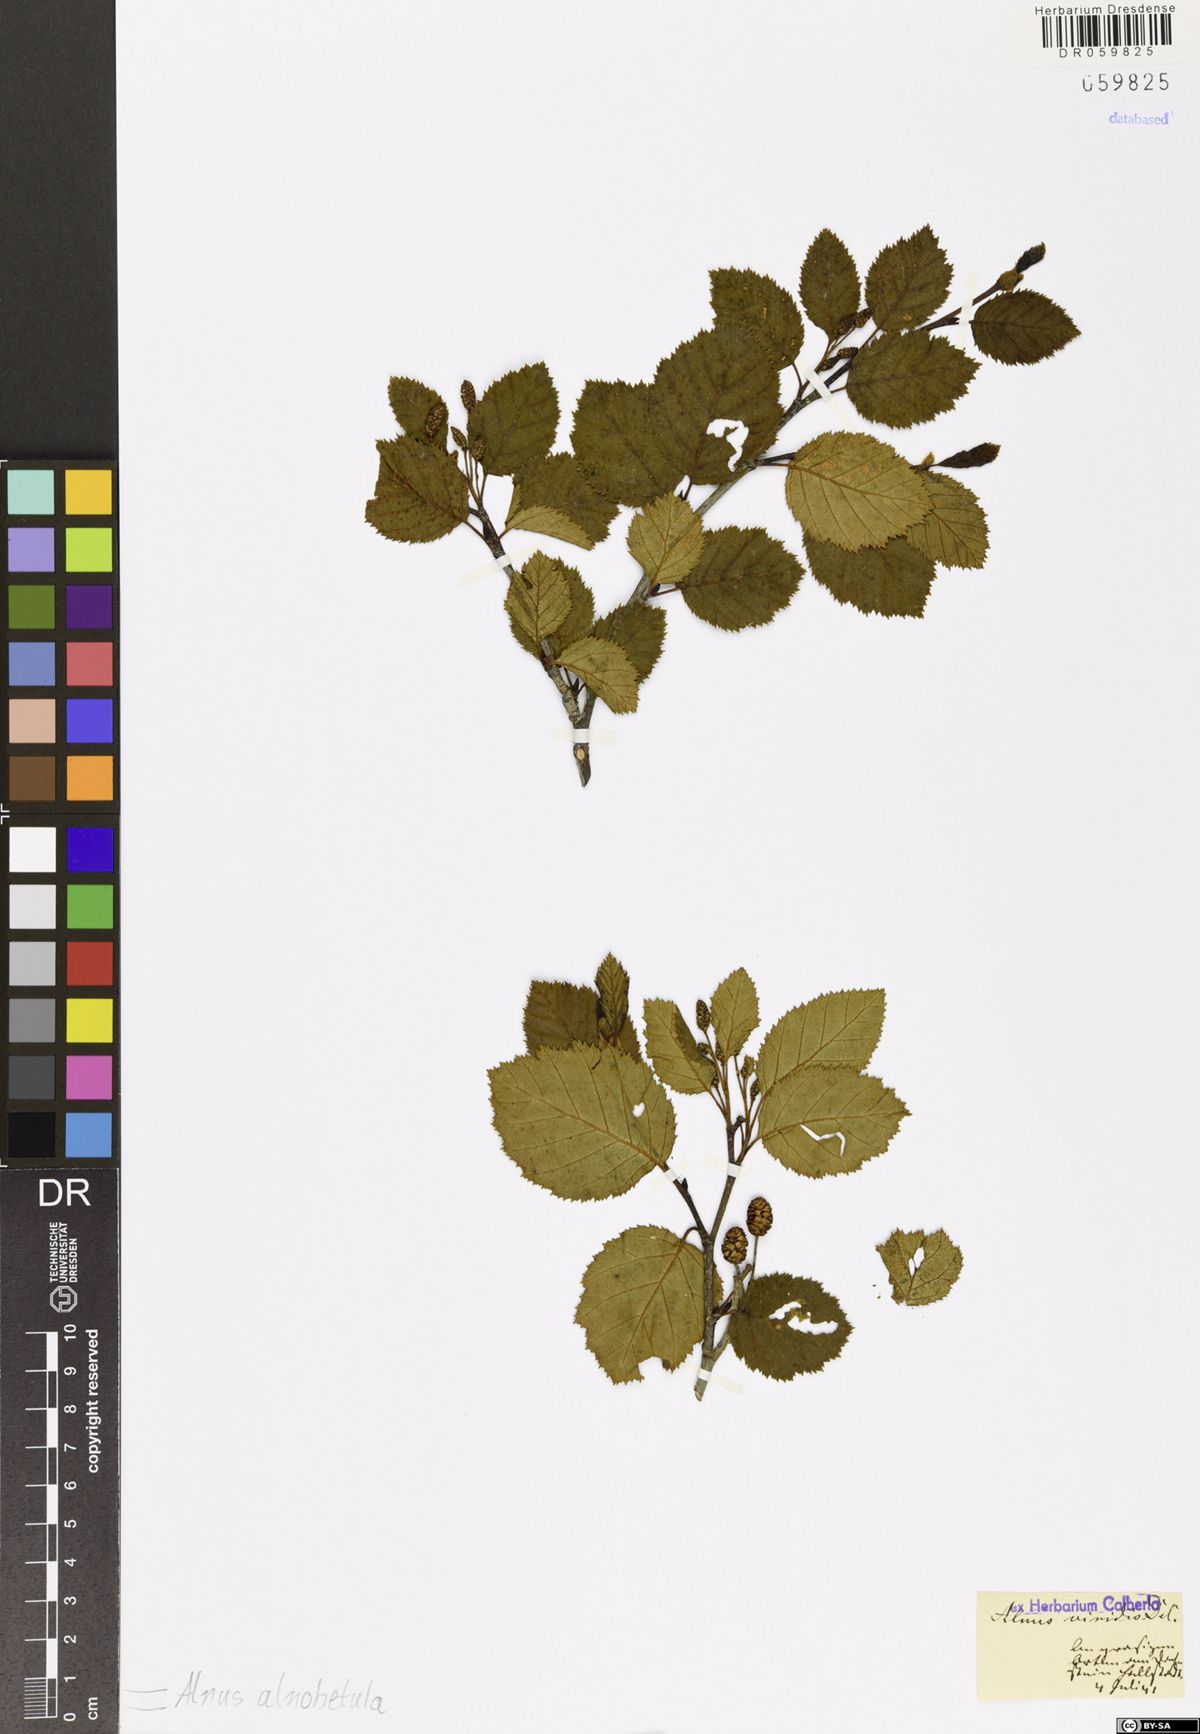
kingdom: Plantae
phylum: Tracheophyta
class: Magnoliopsida
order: Fagales
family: Betulaceae
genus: Alnus
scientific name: Alnus alnobetula
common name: Green alder
